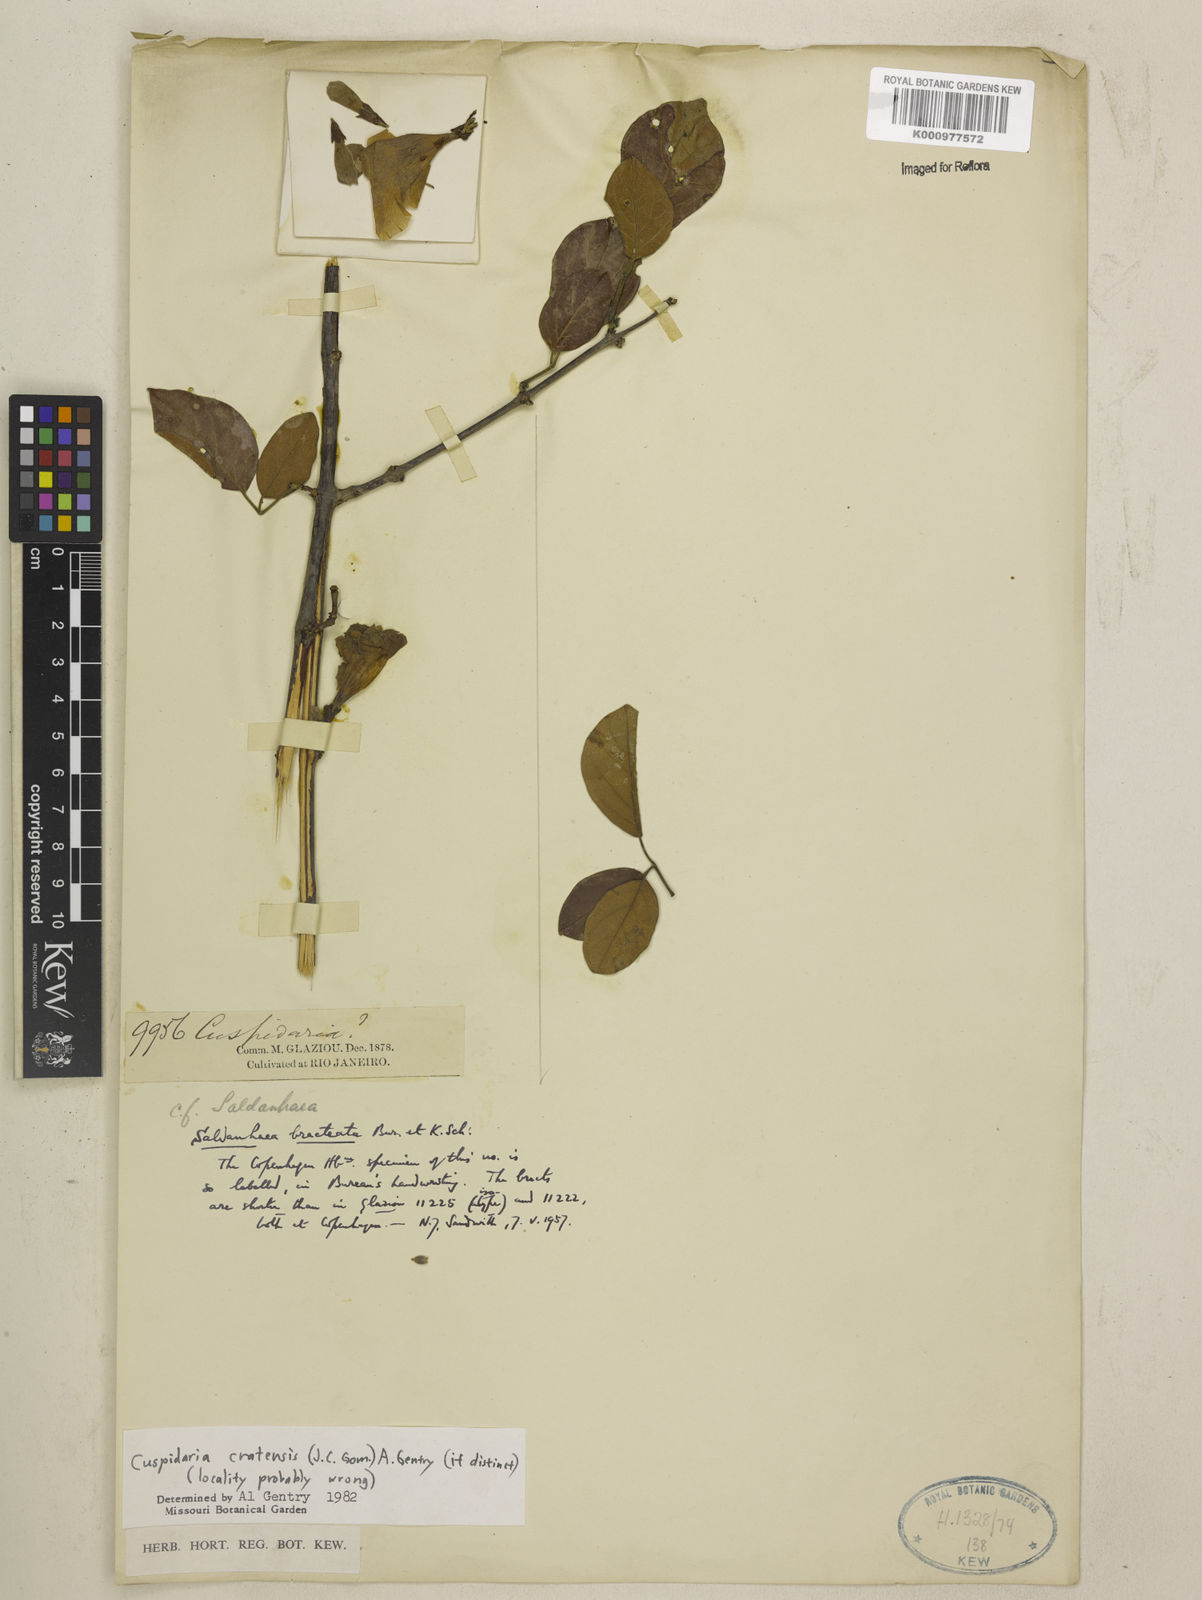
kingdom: Plantae
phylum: Tracheophyta
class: Magnoliopsida
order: Lamiales
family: Bignoniaceae
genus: Cuspidaria
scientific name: Cuspidaria cratensis
